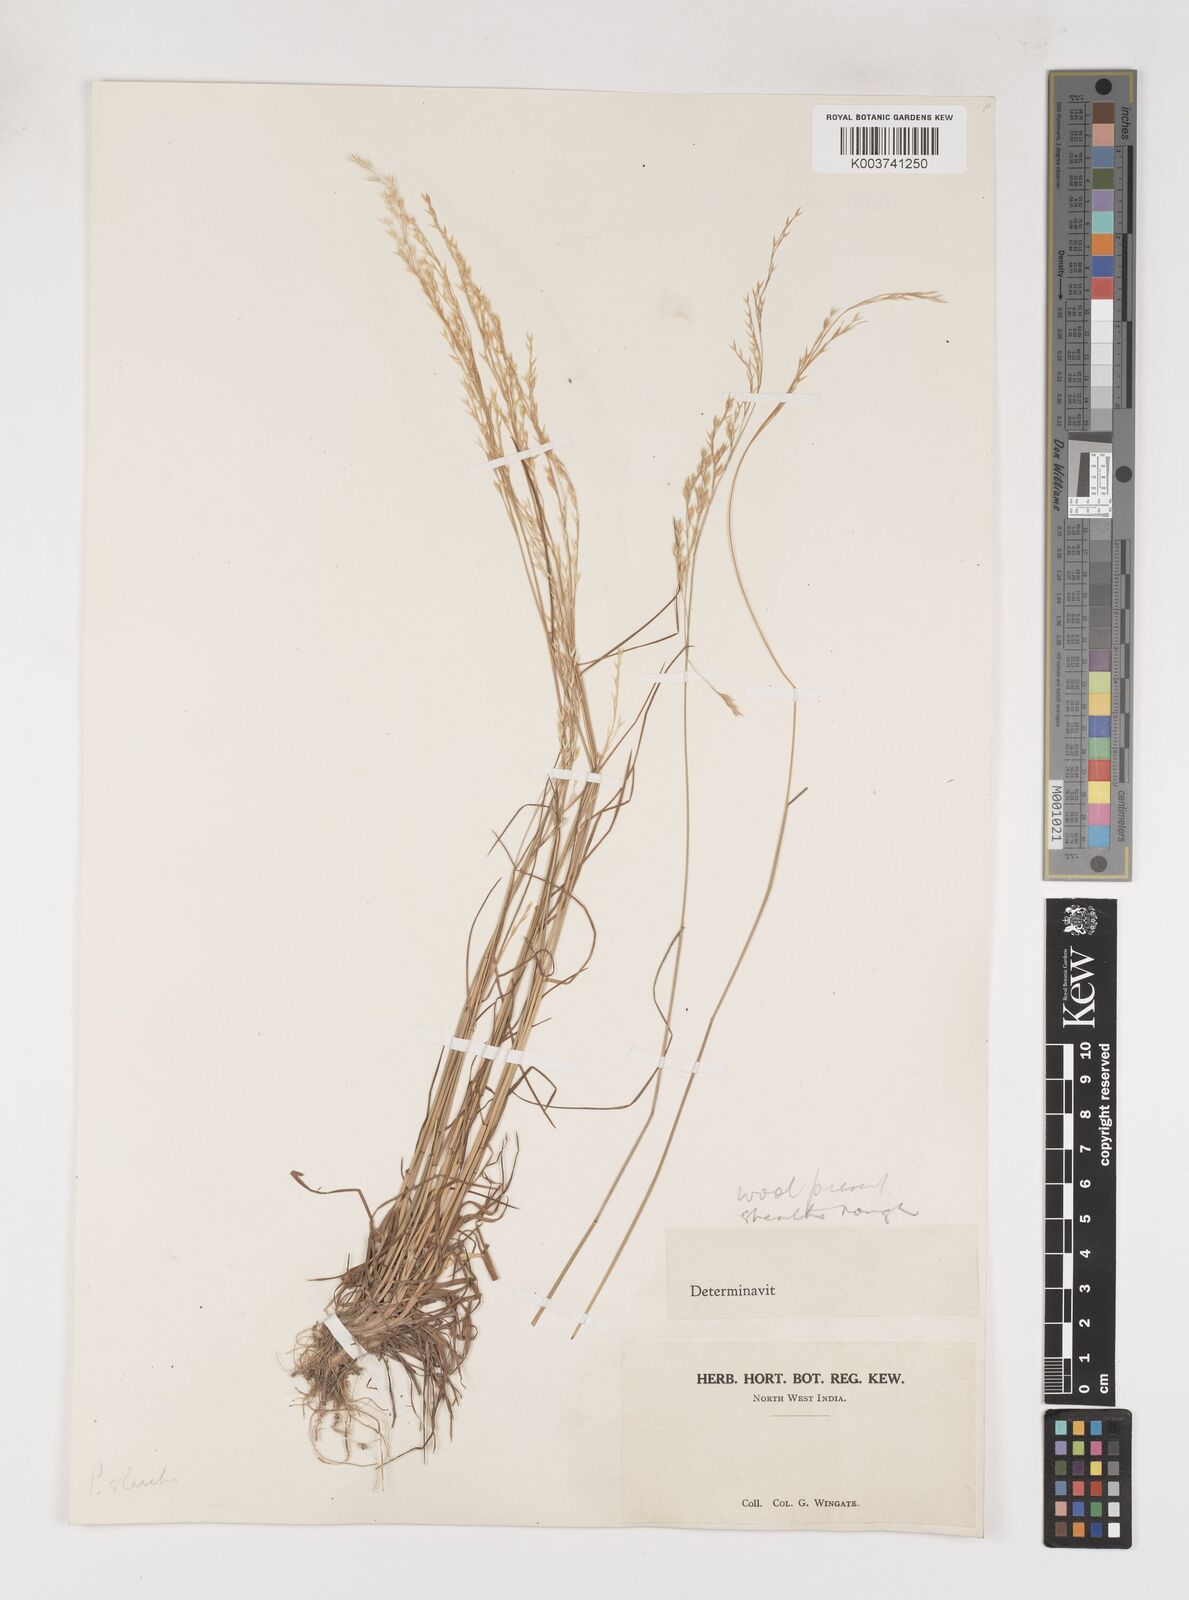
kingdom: Plantae
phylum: Tracheophyta
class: Liliopsida
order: Poales
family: Poaceae
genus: Poa
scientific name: Poa
